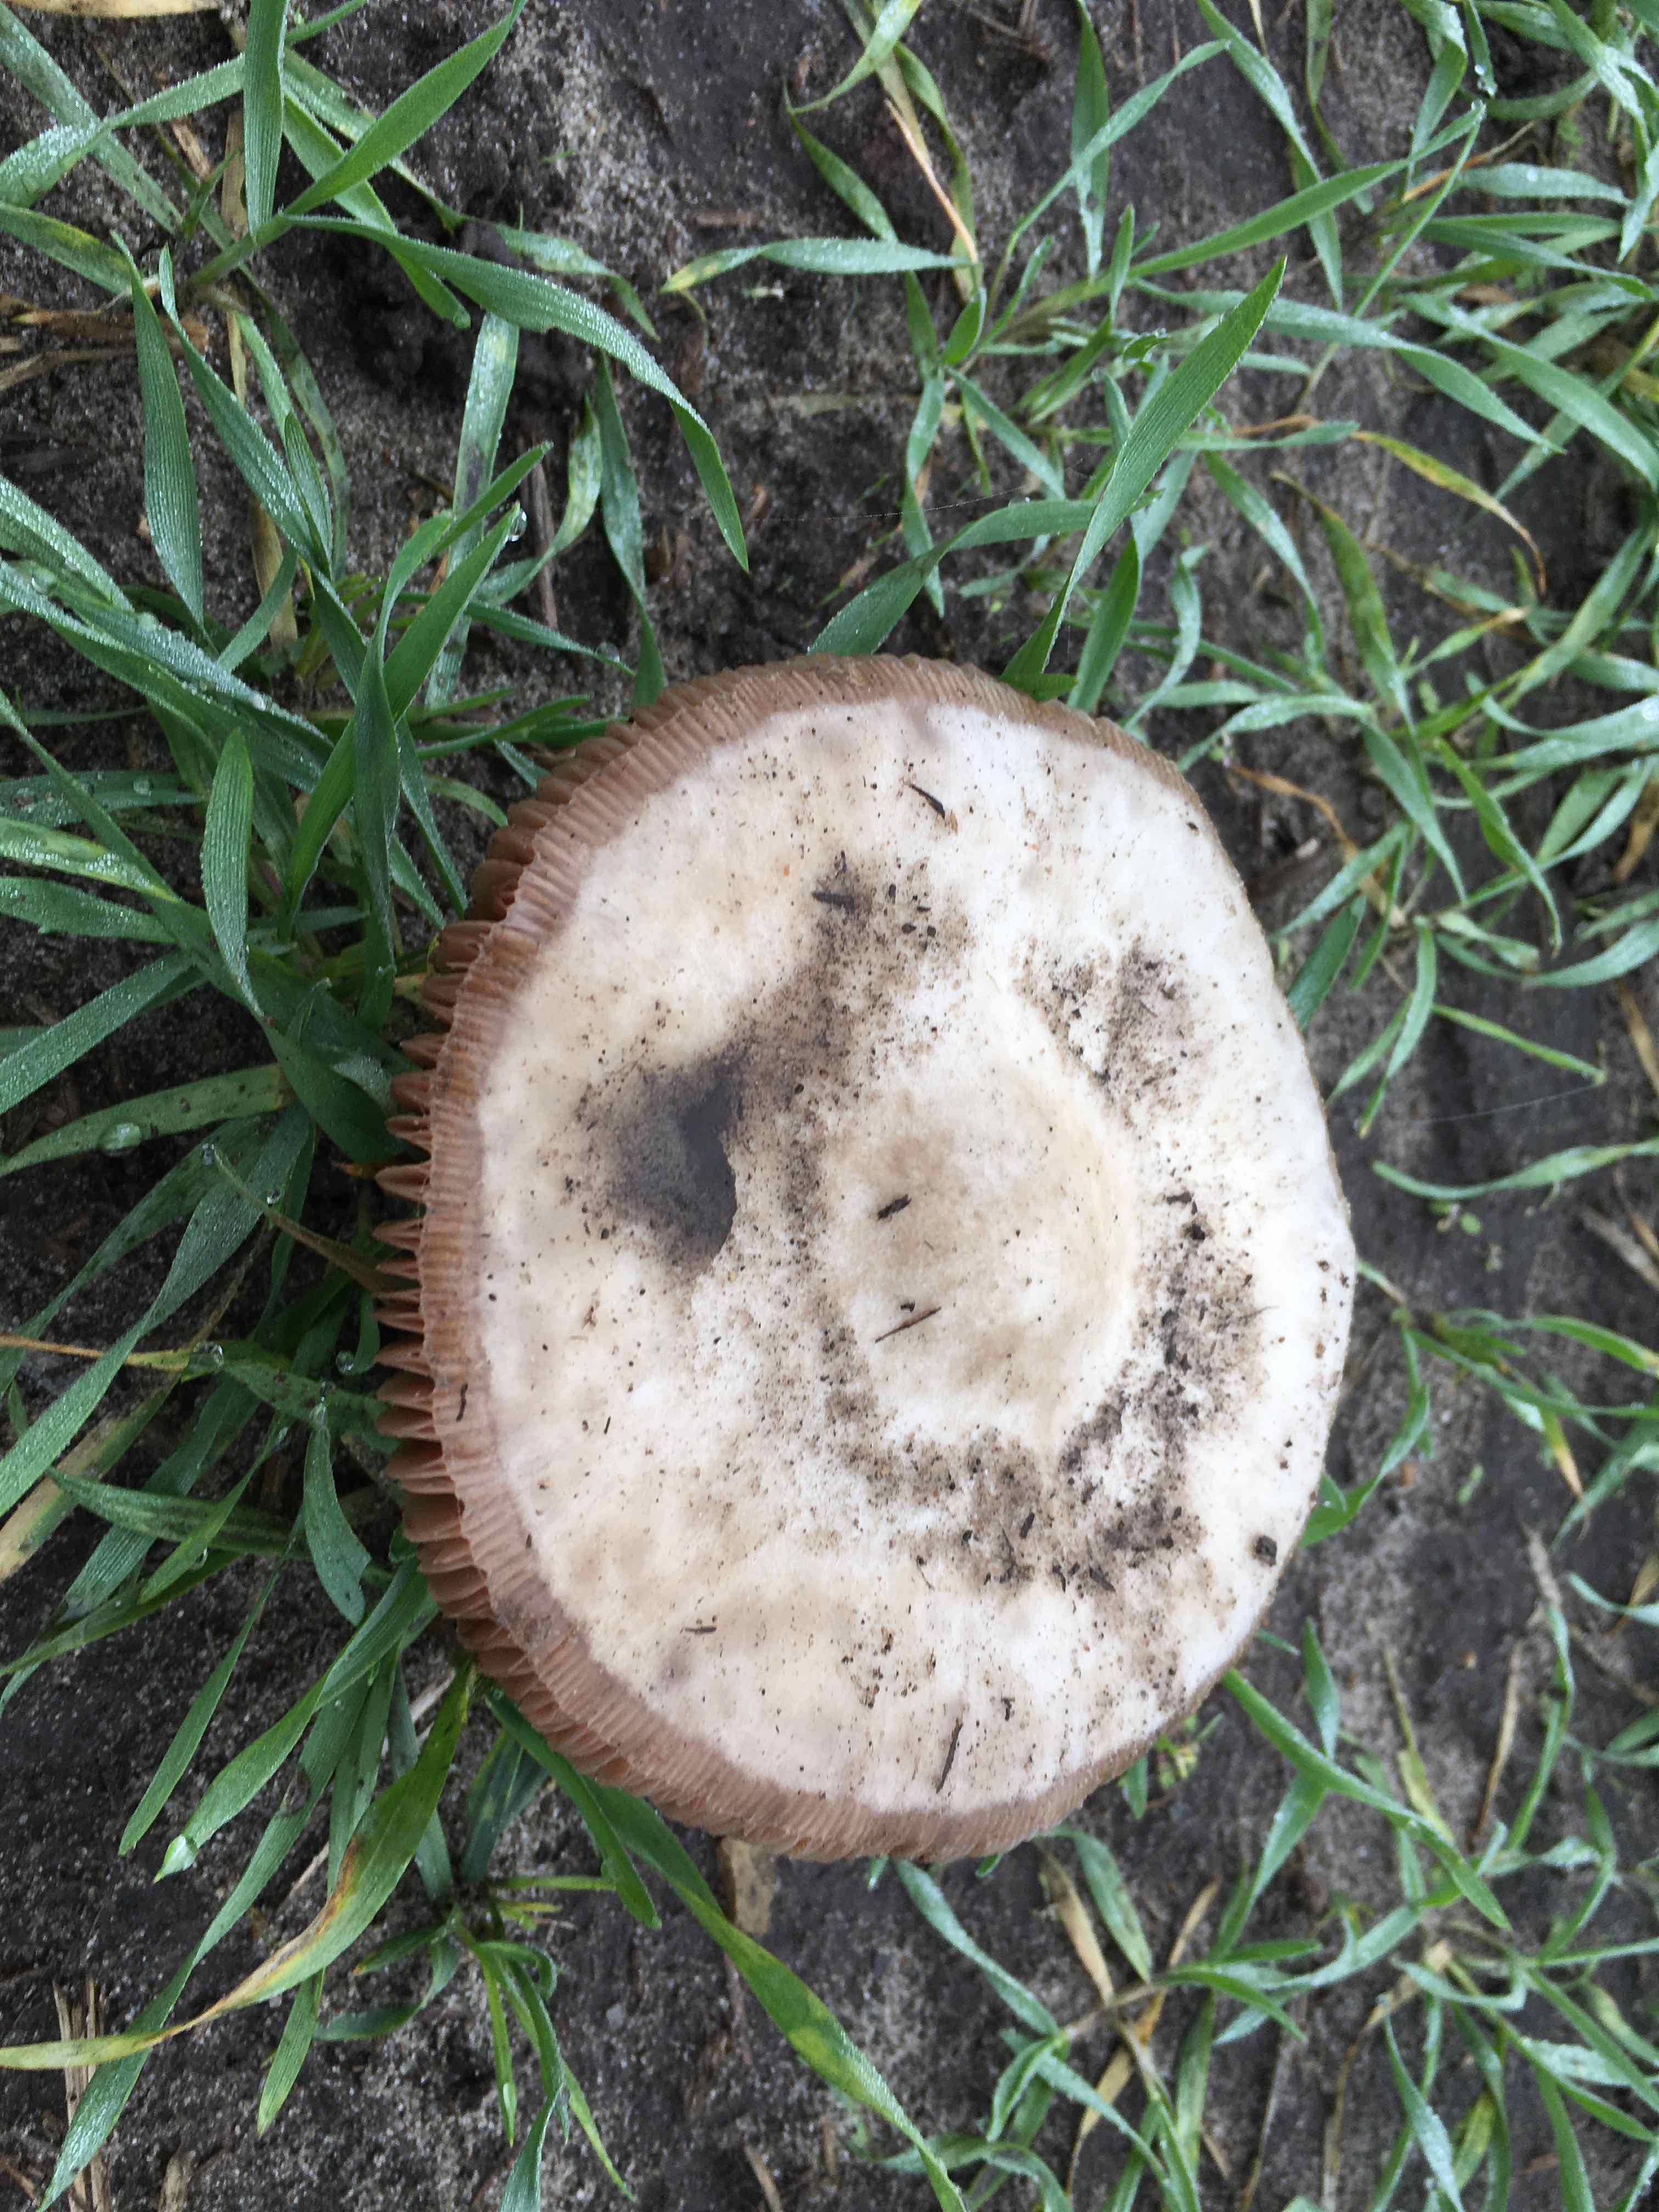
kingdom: Fungi
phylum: Basidiomycota
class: Agaricomycetes
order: Agaricales
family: Pluteaceae
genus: Volvopluteus
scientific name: Volvopluteus gloiocephalus
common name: høj posesvamp
